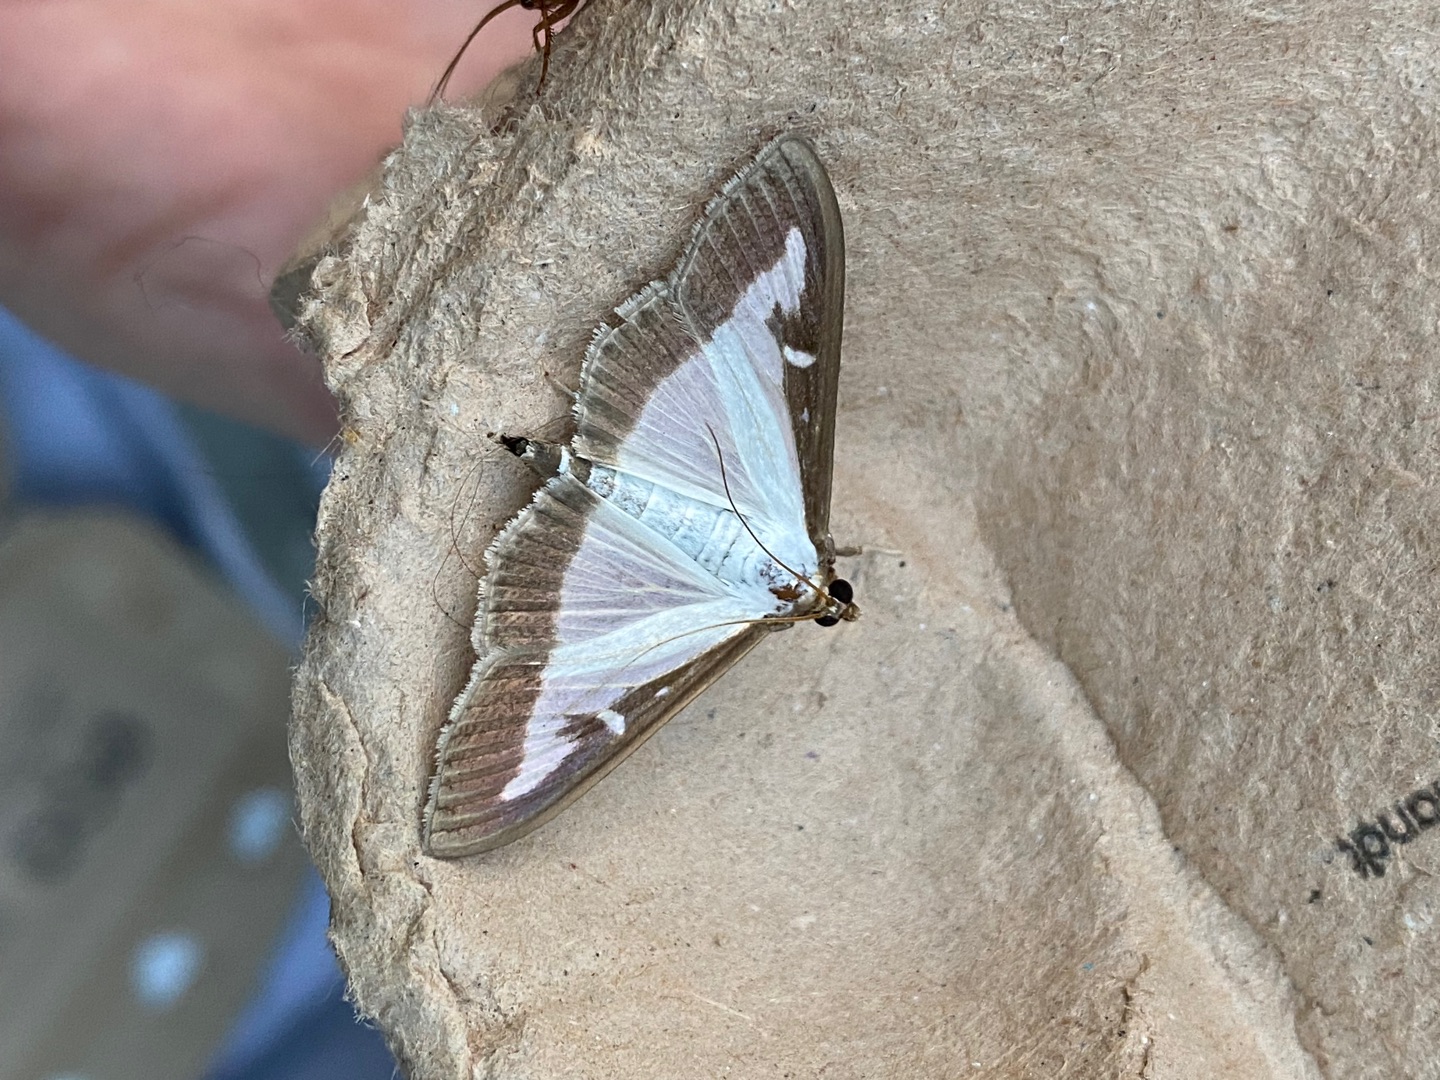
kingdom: Animalia
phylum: Arthropoda
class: Insecta
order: Lepidoptera
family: Crambidae
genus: Cydalima
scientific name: Cydalima perspectalis
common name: Buksbomhalvmøl
